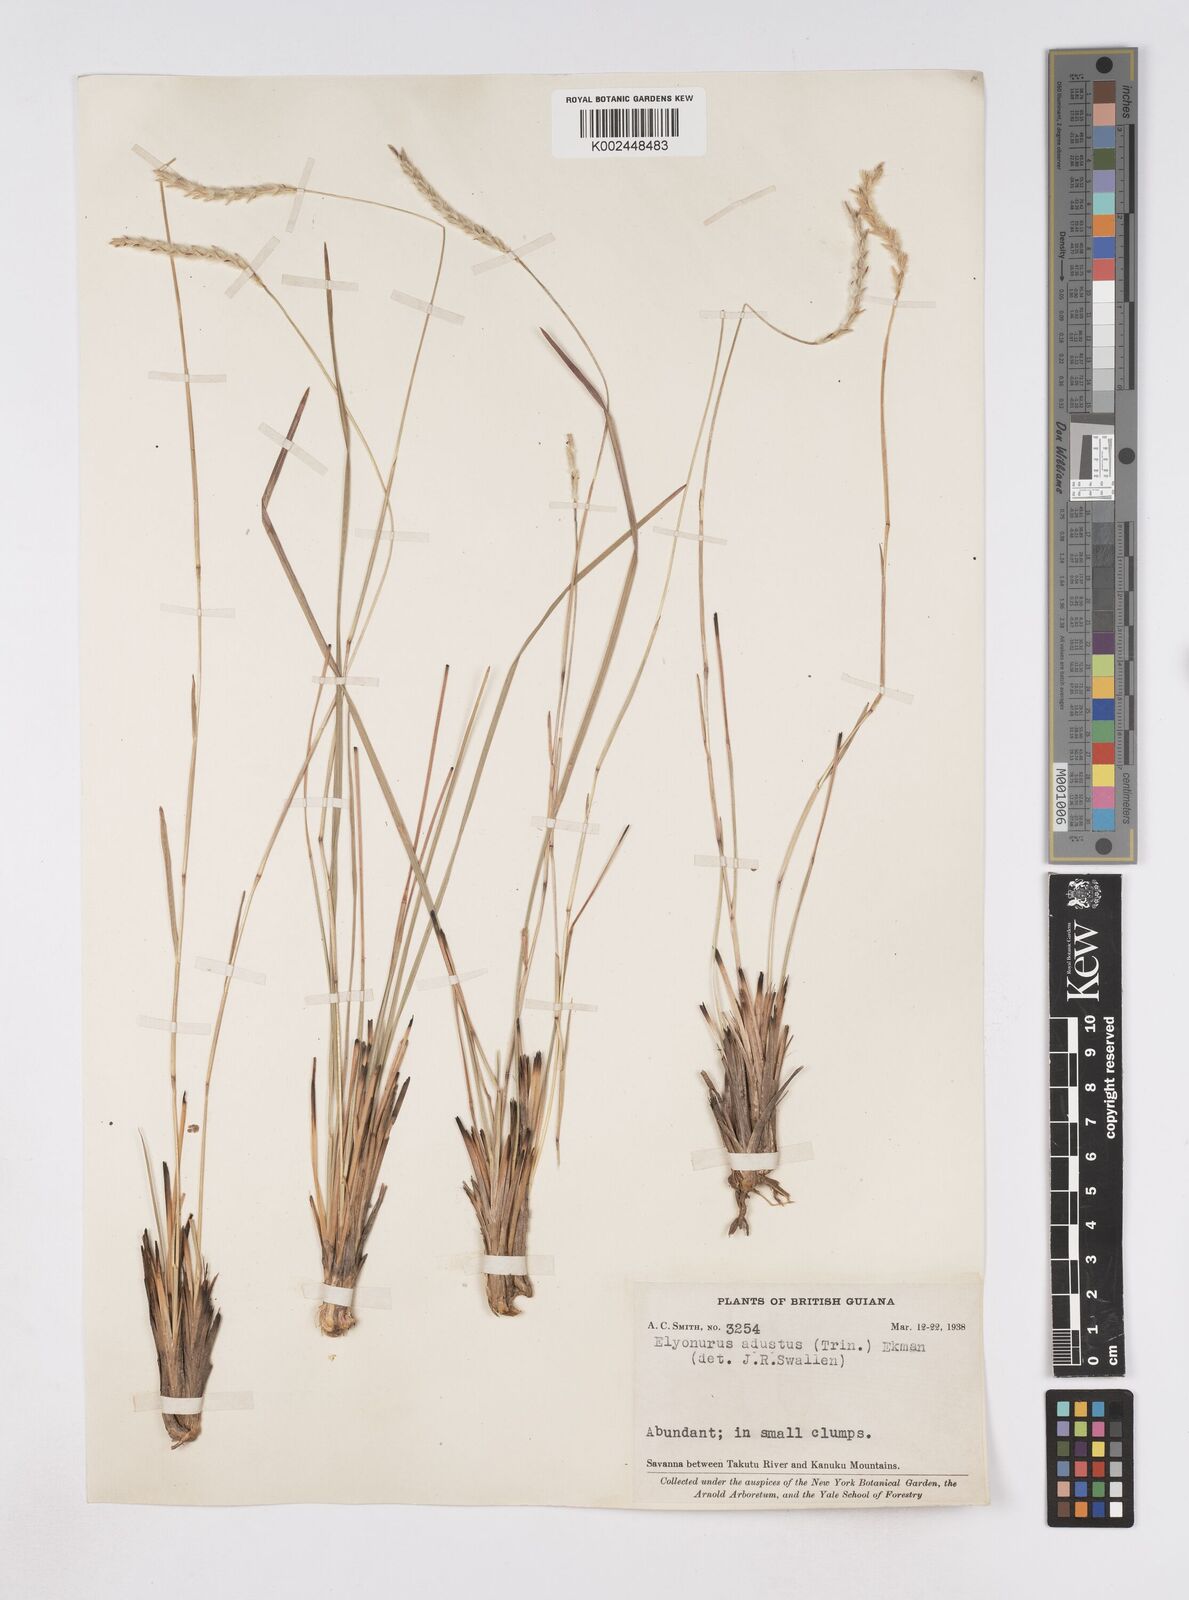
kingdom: Plantae
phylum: Tracheophyta
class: Liliopsida
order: Poales
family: Poaceae
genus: Elionurus
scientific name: Elionurus planifolius
